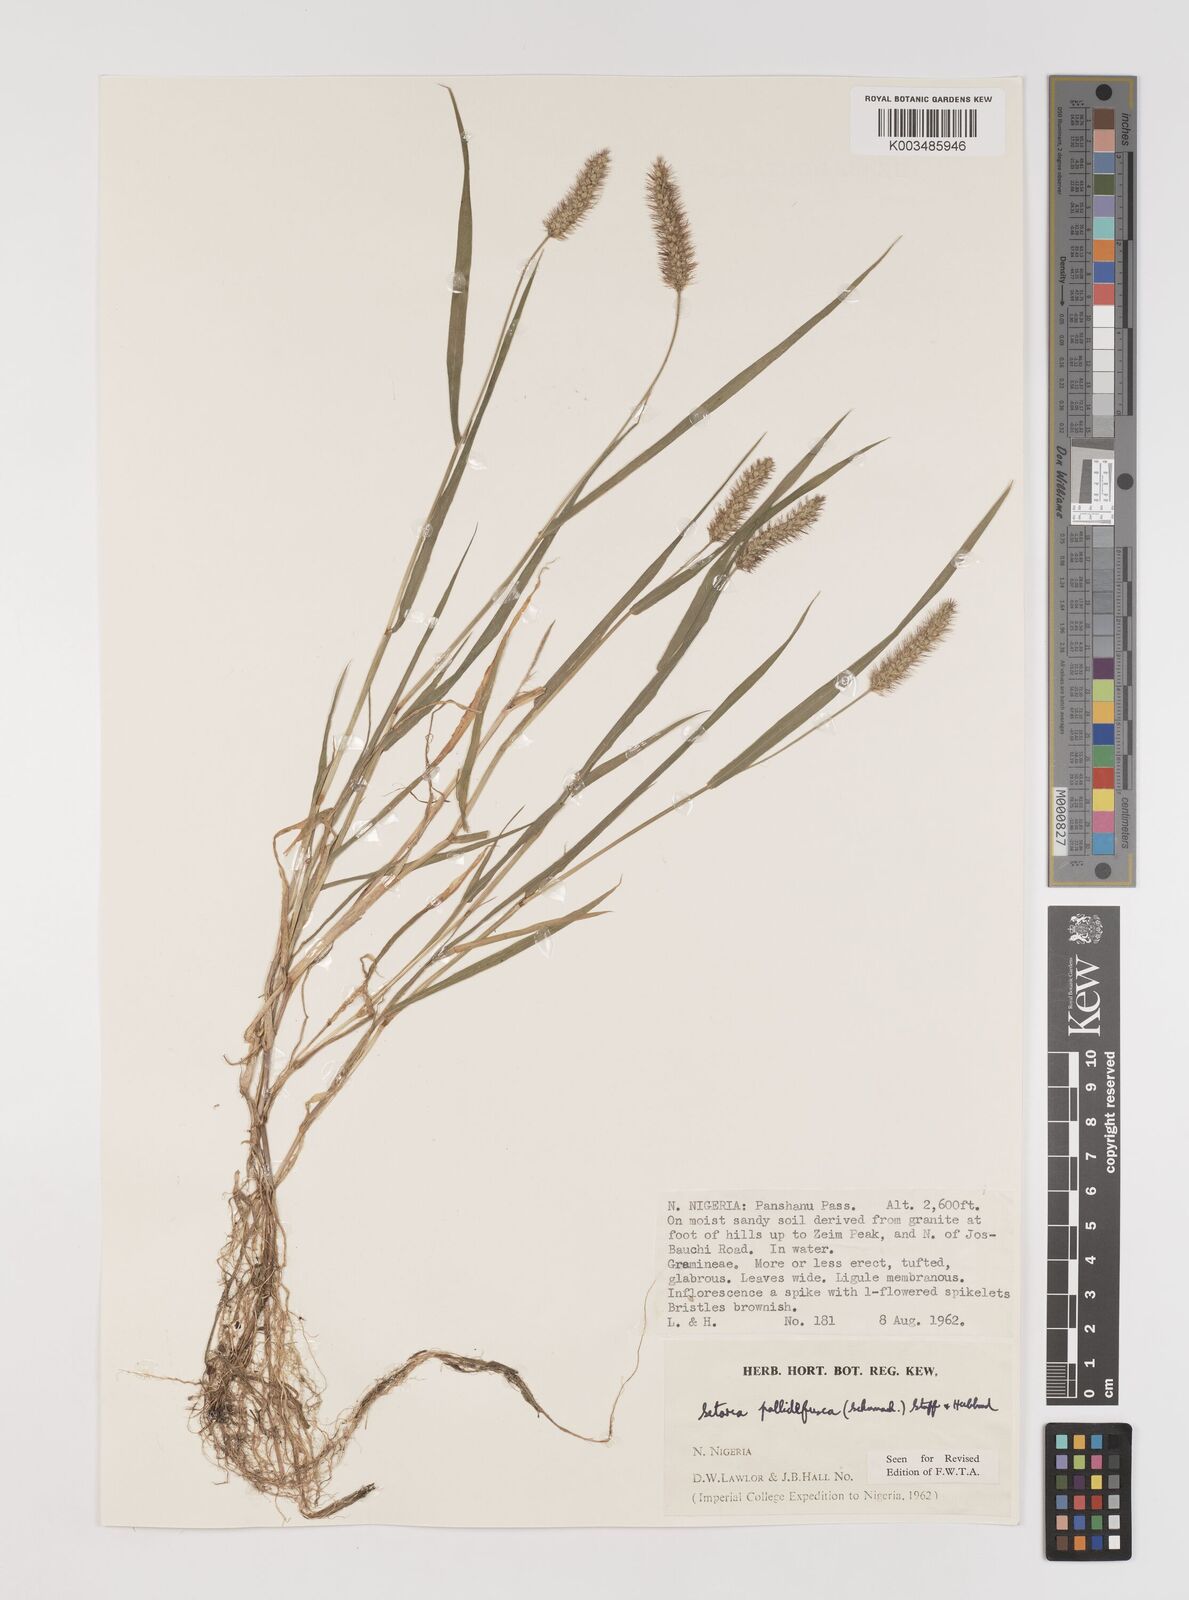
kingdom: Plantae
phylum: Tracheophyta
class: Liliopsida
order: Poales
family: Poaceae
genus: Setaria
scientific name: Setaria pumila
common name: Yellow bristle-grass
